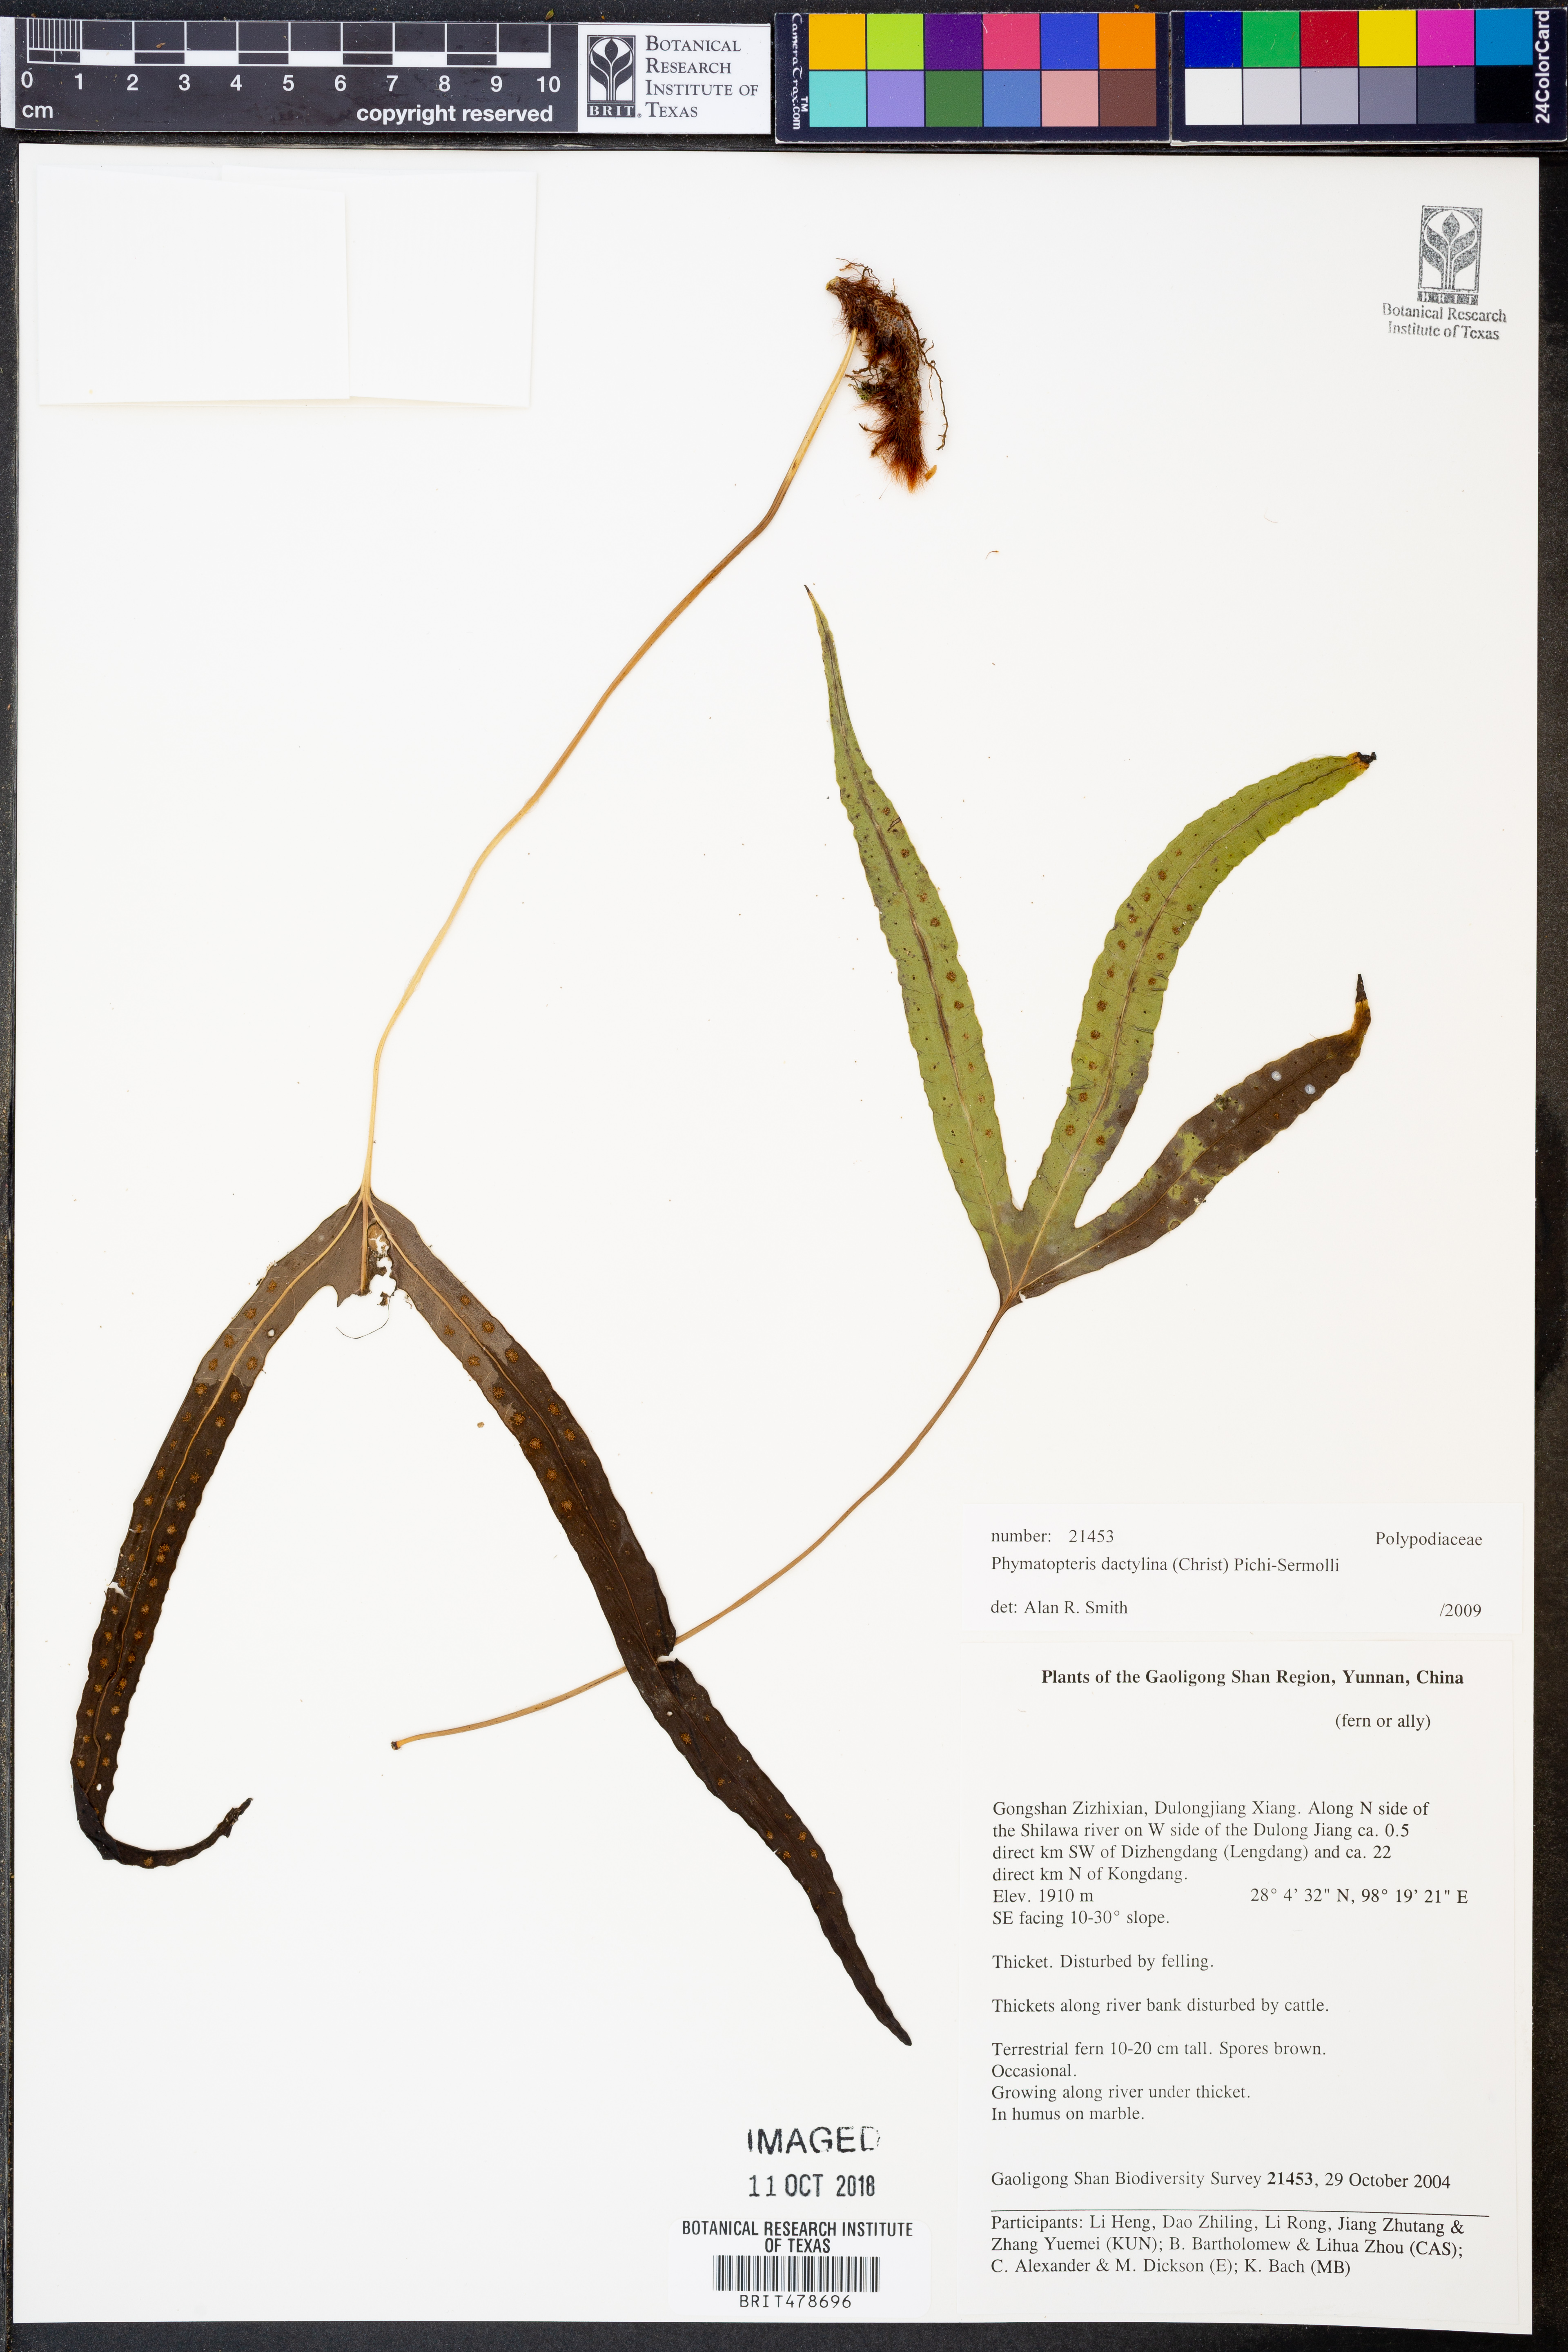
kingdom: Plantae
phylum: Tracheophyta
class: Polypodiopsida
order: Polypodiales
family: Polypodiaceae
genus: Selliguea
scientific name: Selliguea dactylina
